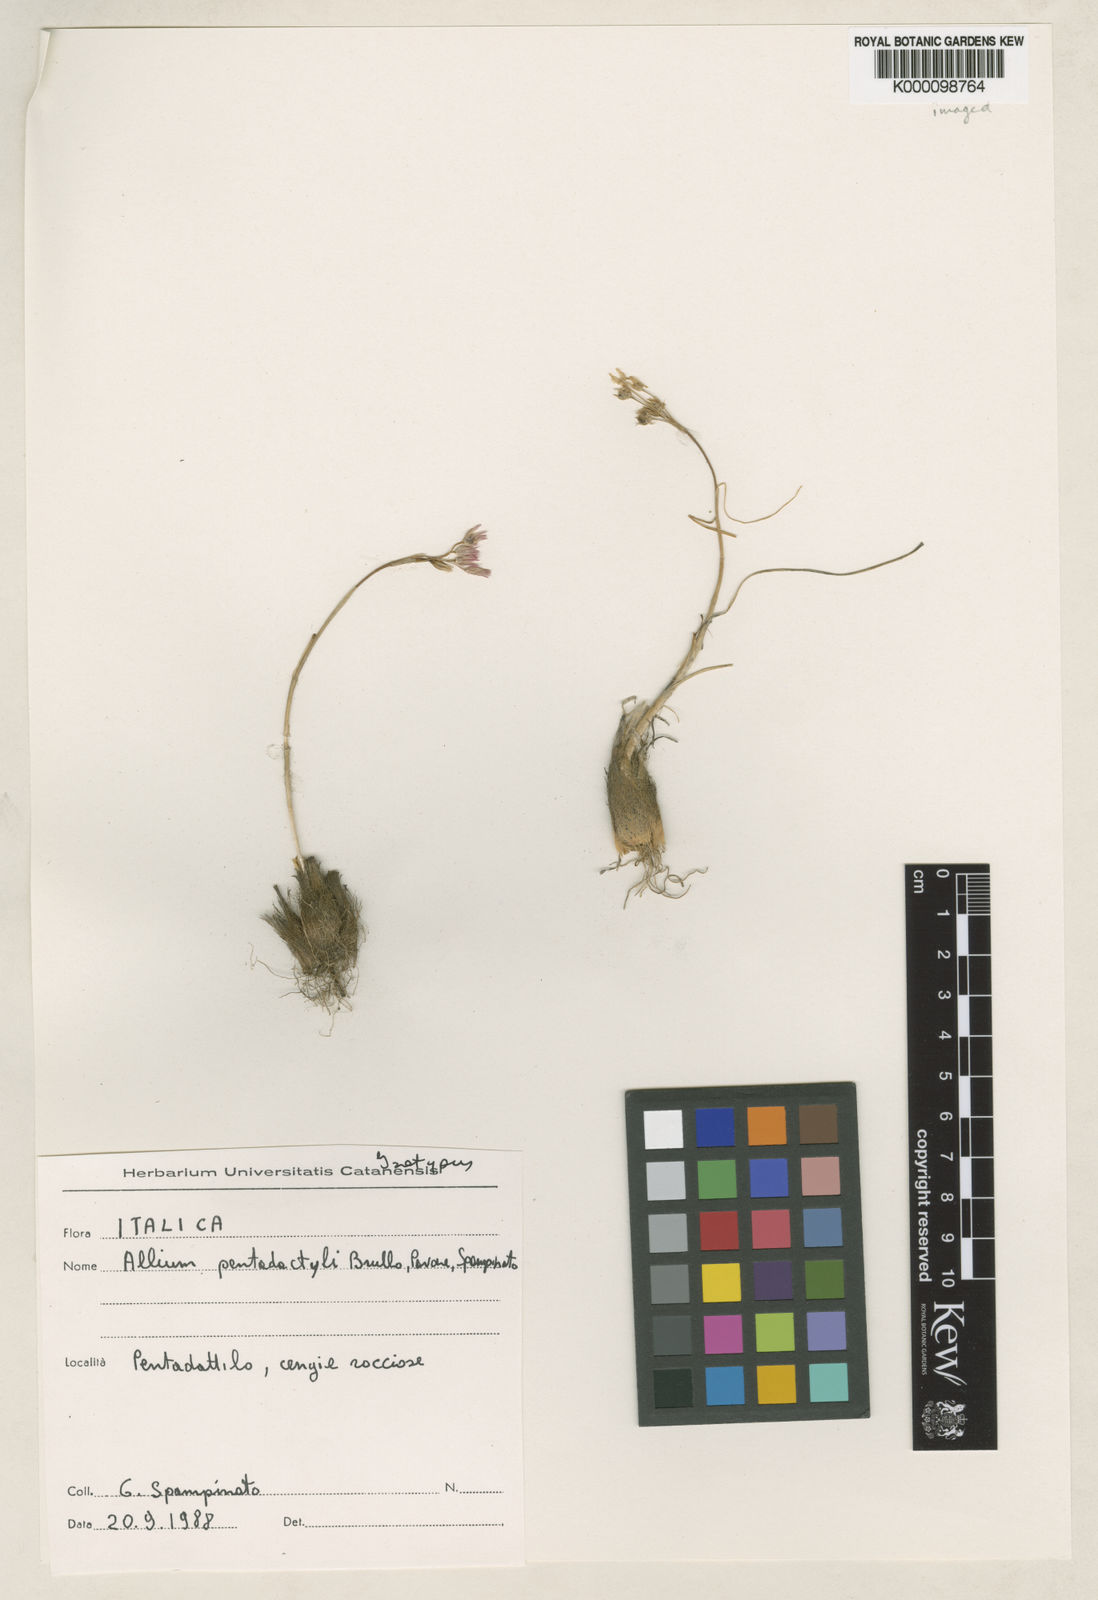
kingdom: Plantae
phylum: Tracheophyta
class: Liliopsida
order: Asparagales
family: Amaryllidaceae
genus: Allium
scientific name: Allium
